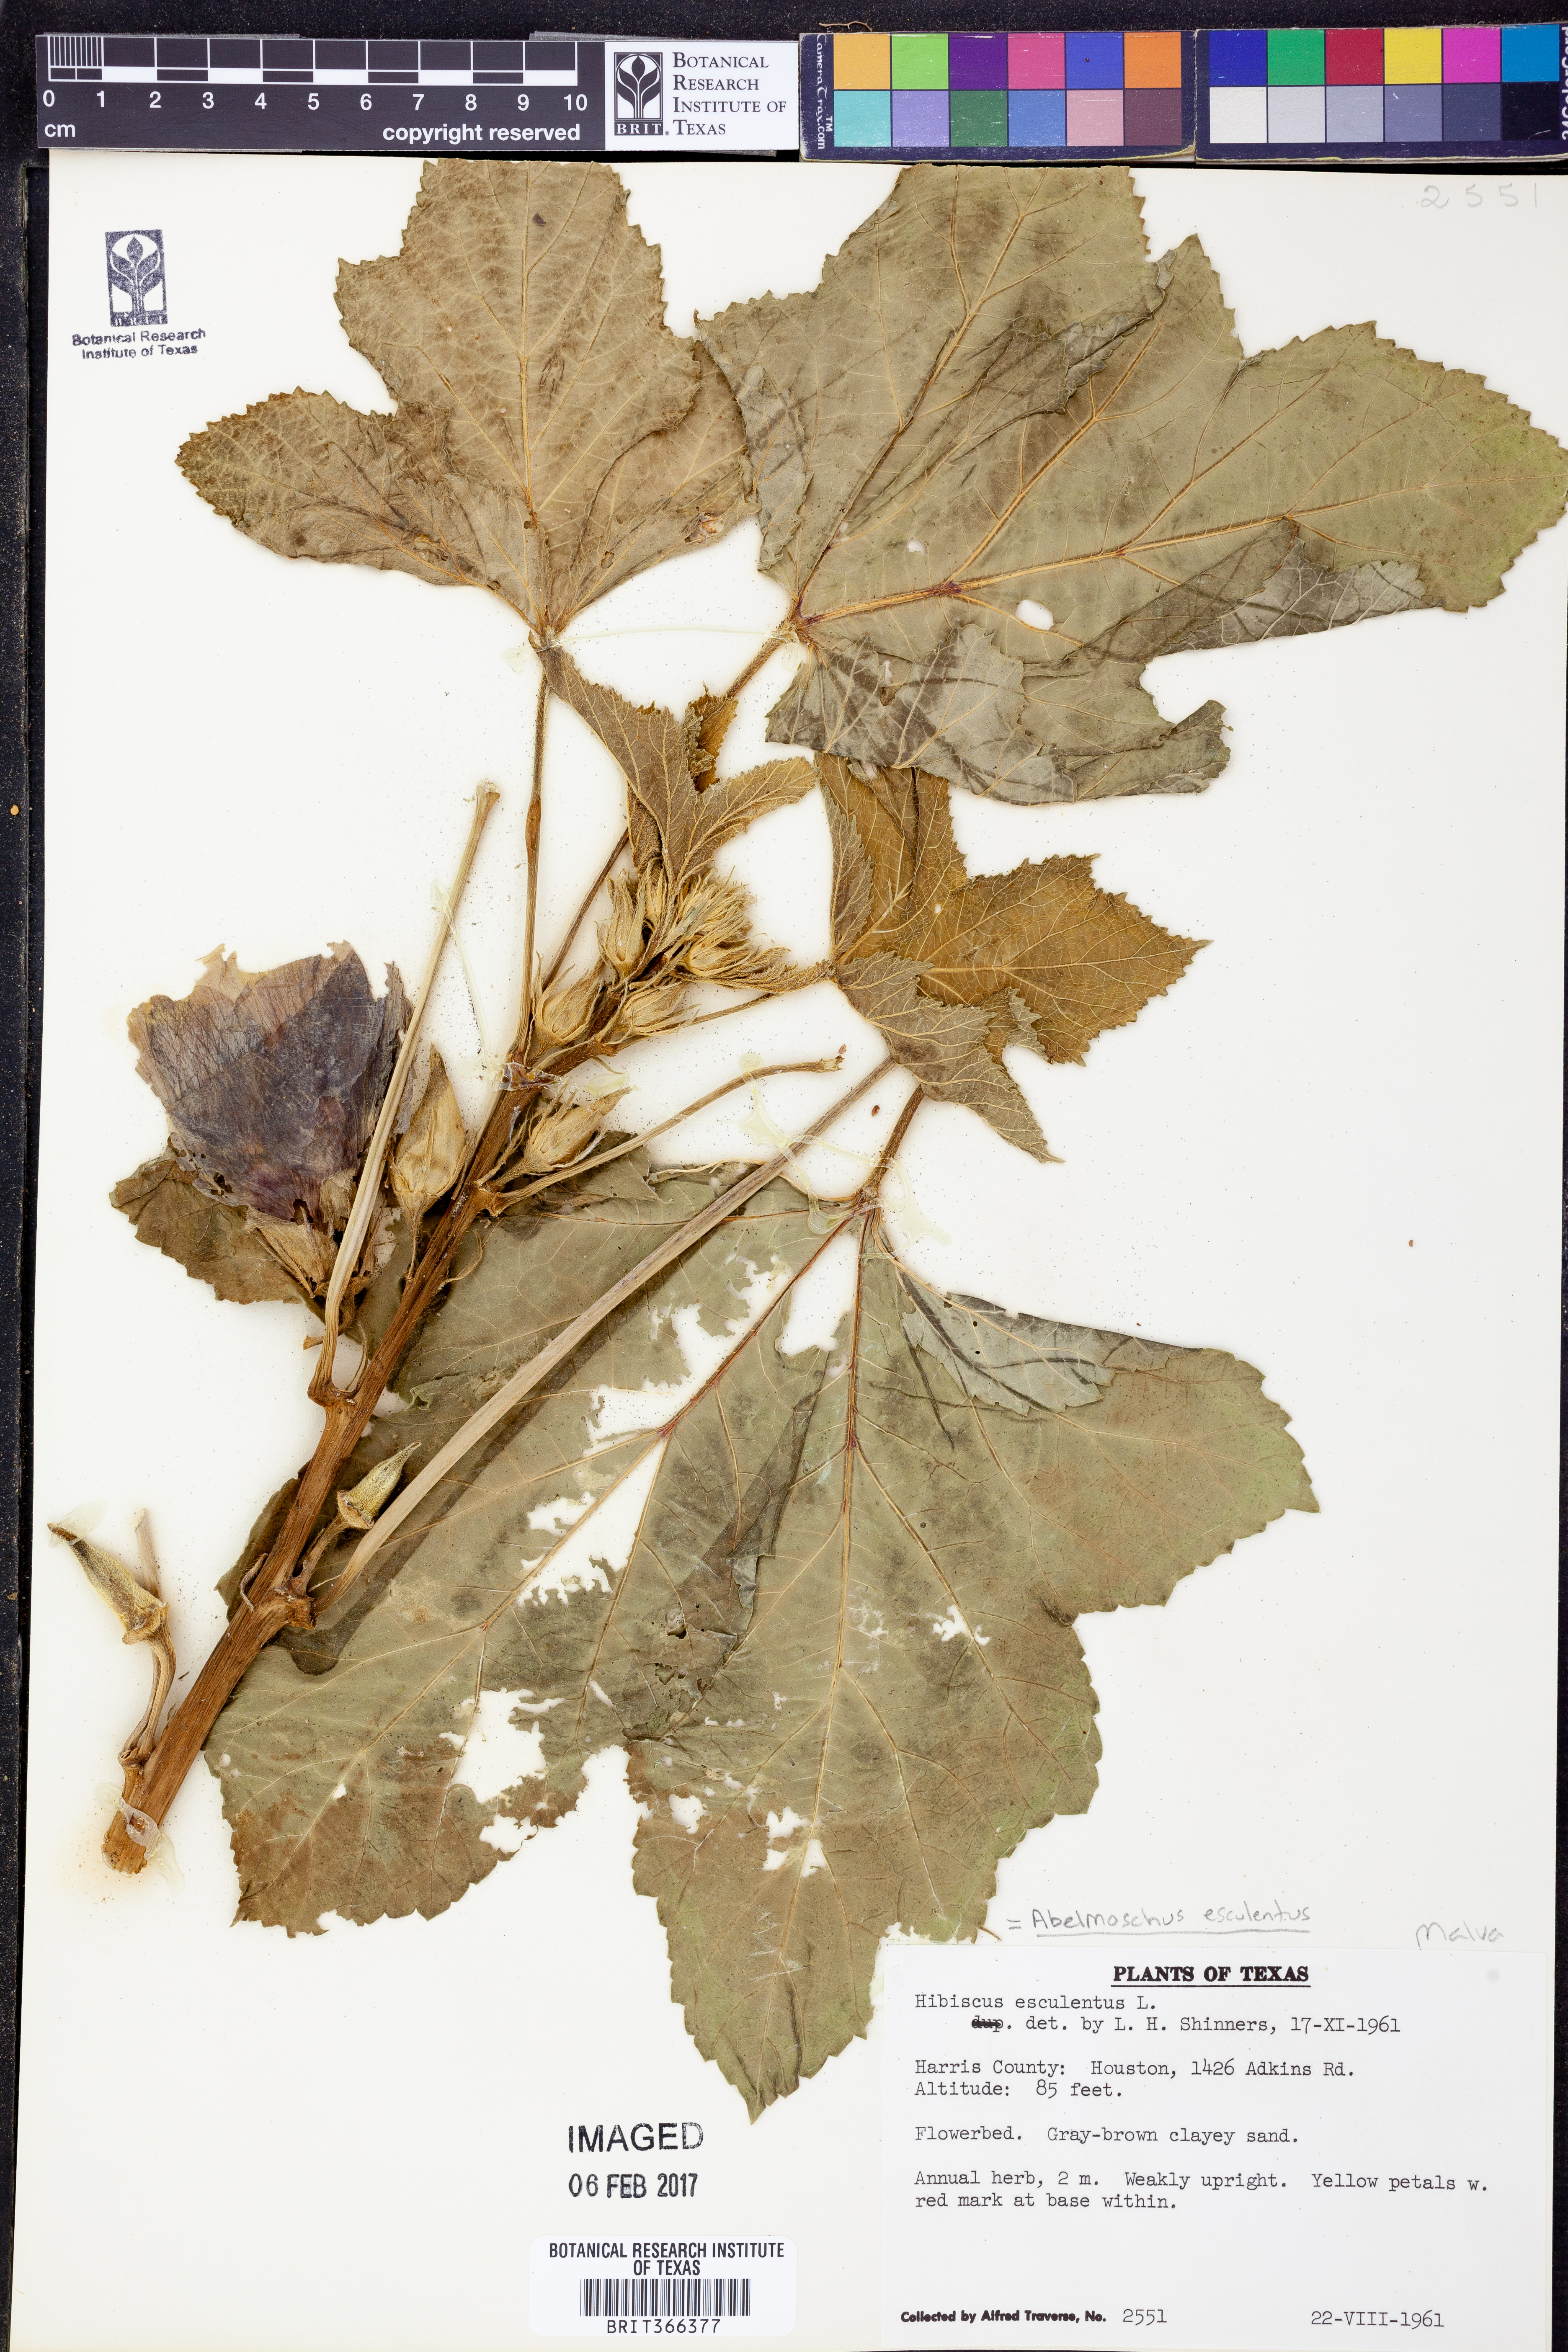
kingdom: Plantae
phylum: Tracheophyta
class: Magnoliopsida
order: Malvales
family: Malvaceae
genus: Abelmoschus
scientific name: Abelmoschus esculentus
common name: Okra
